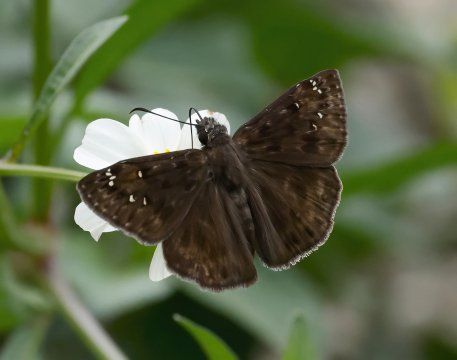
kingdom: Animalia
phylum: Arthropoda
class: Insecta
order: Lepidoptera
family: Hesperiidae
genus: Gesta
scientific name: Gesta
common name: Horace's Duskywing
